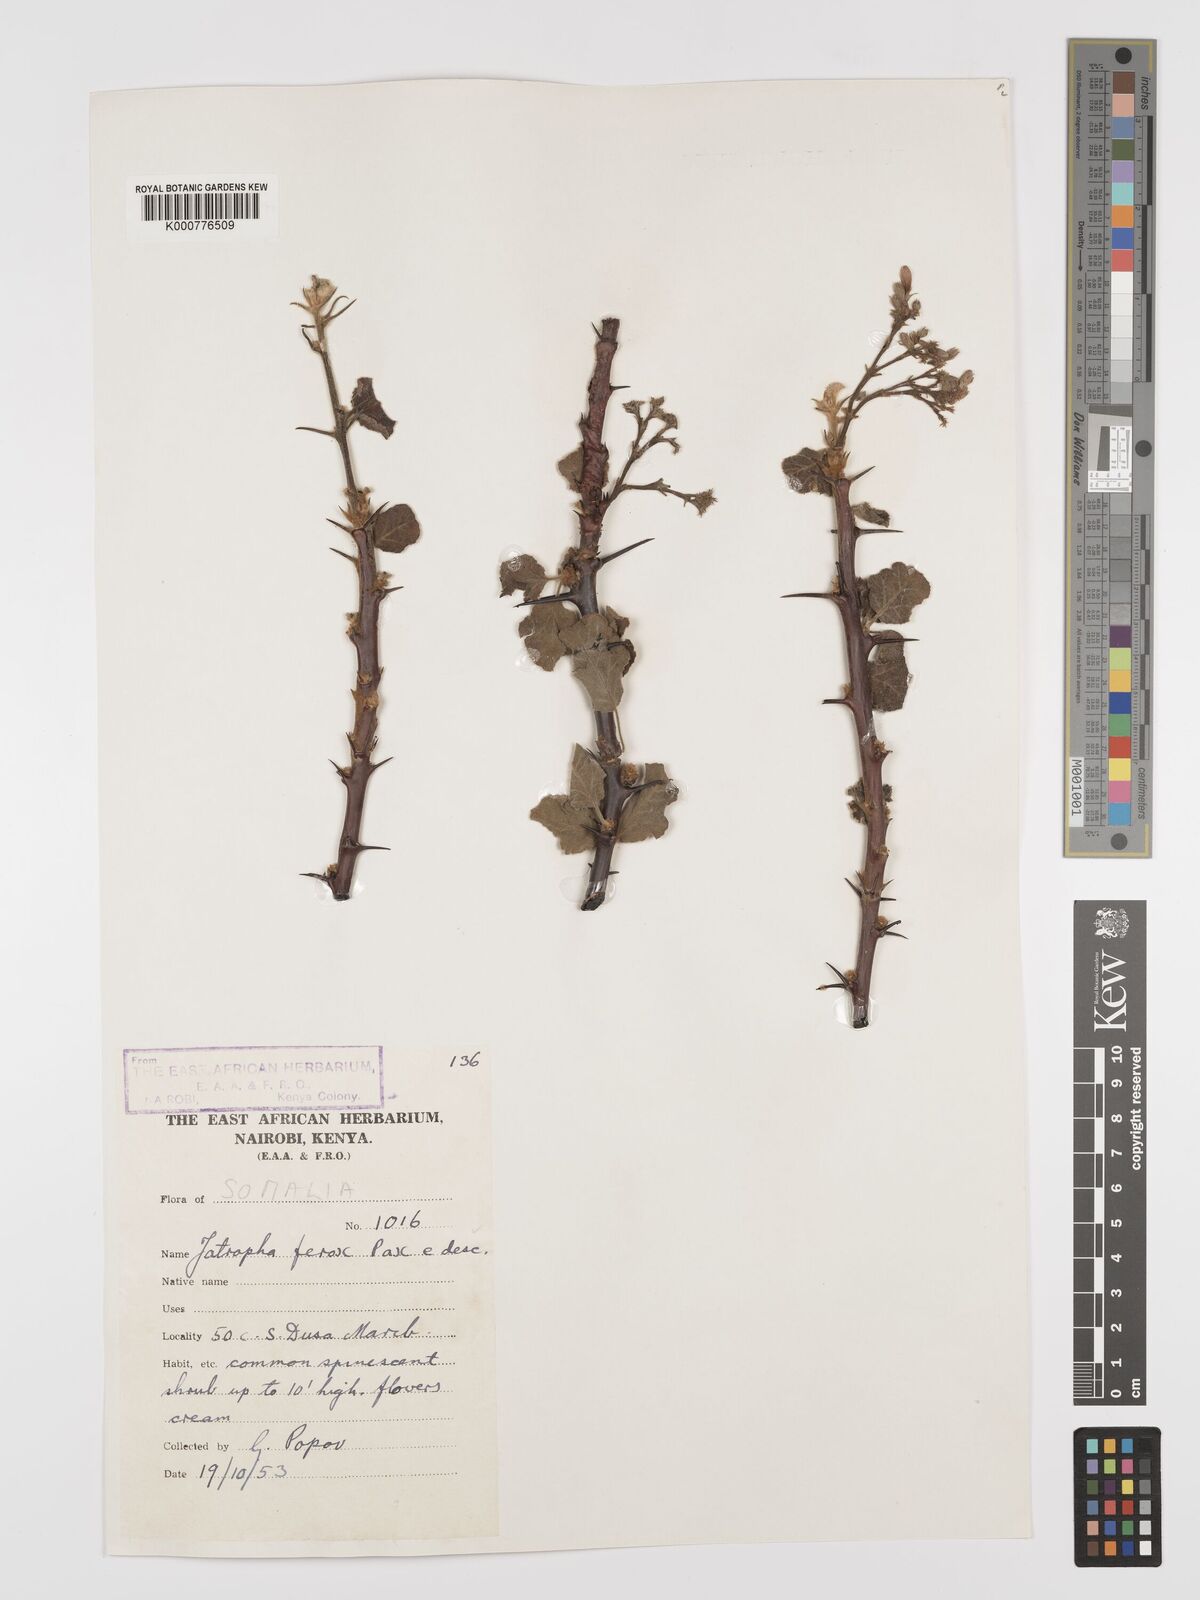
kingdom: Plantae
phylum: Tracheophyta
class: Magnoliopsida
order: Malpighiales
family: Euphorbiaceae
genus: Jatropha
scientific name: Jatropha dichtar
